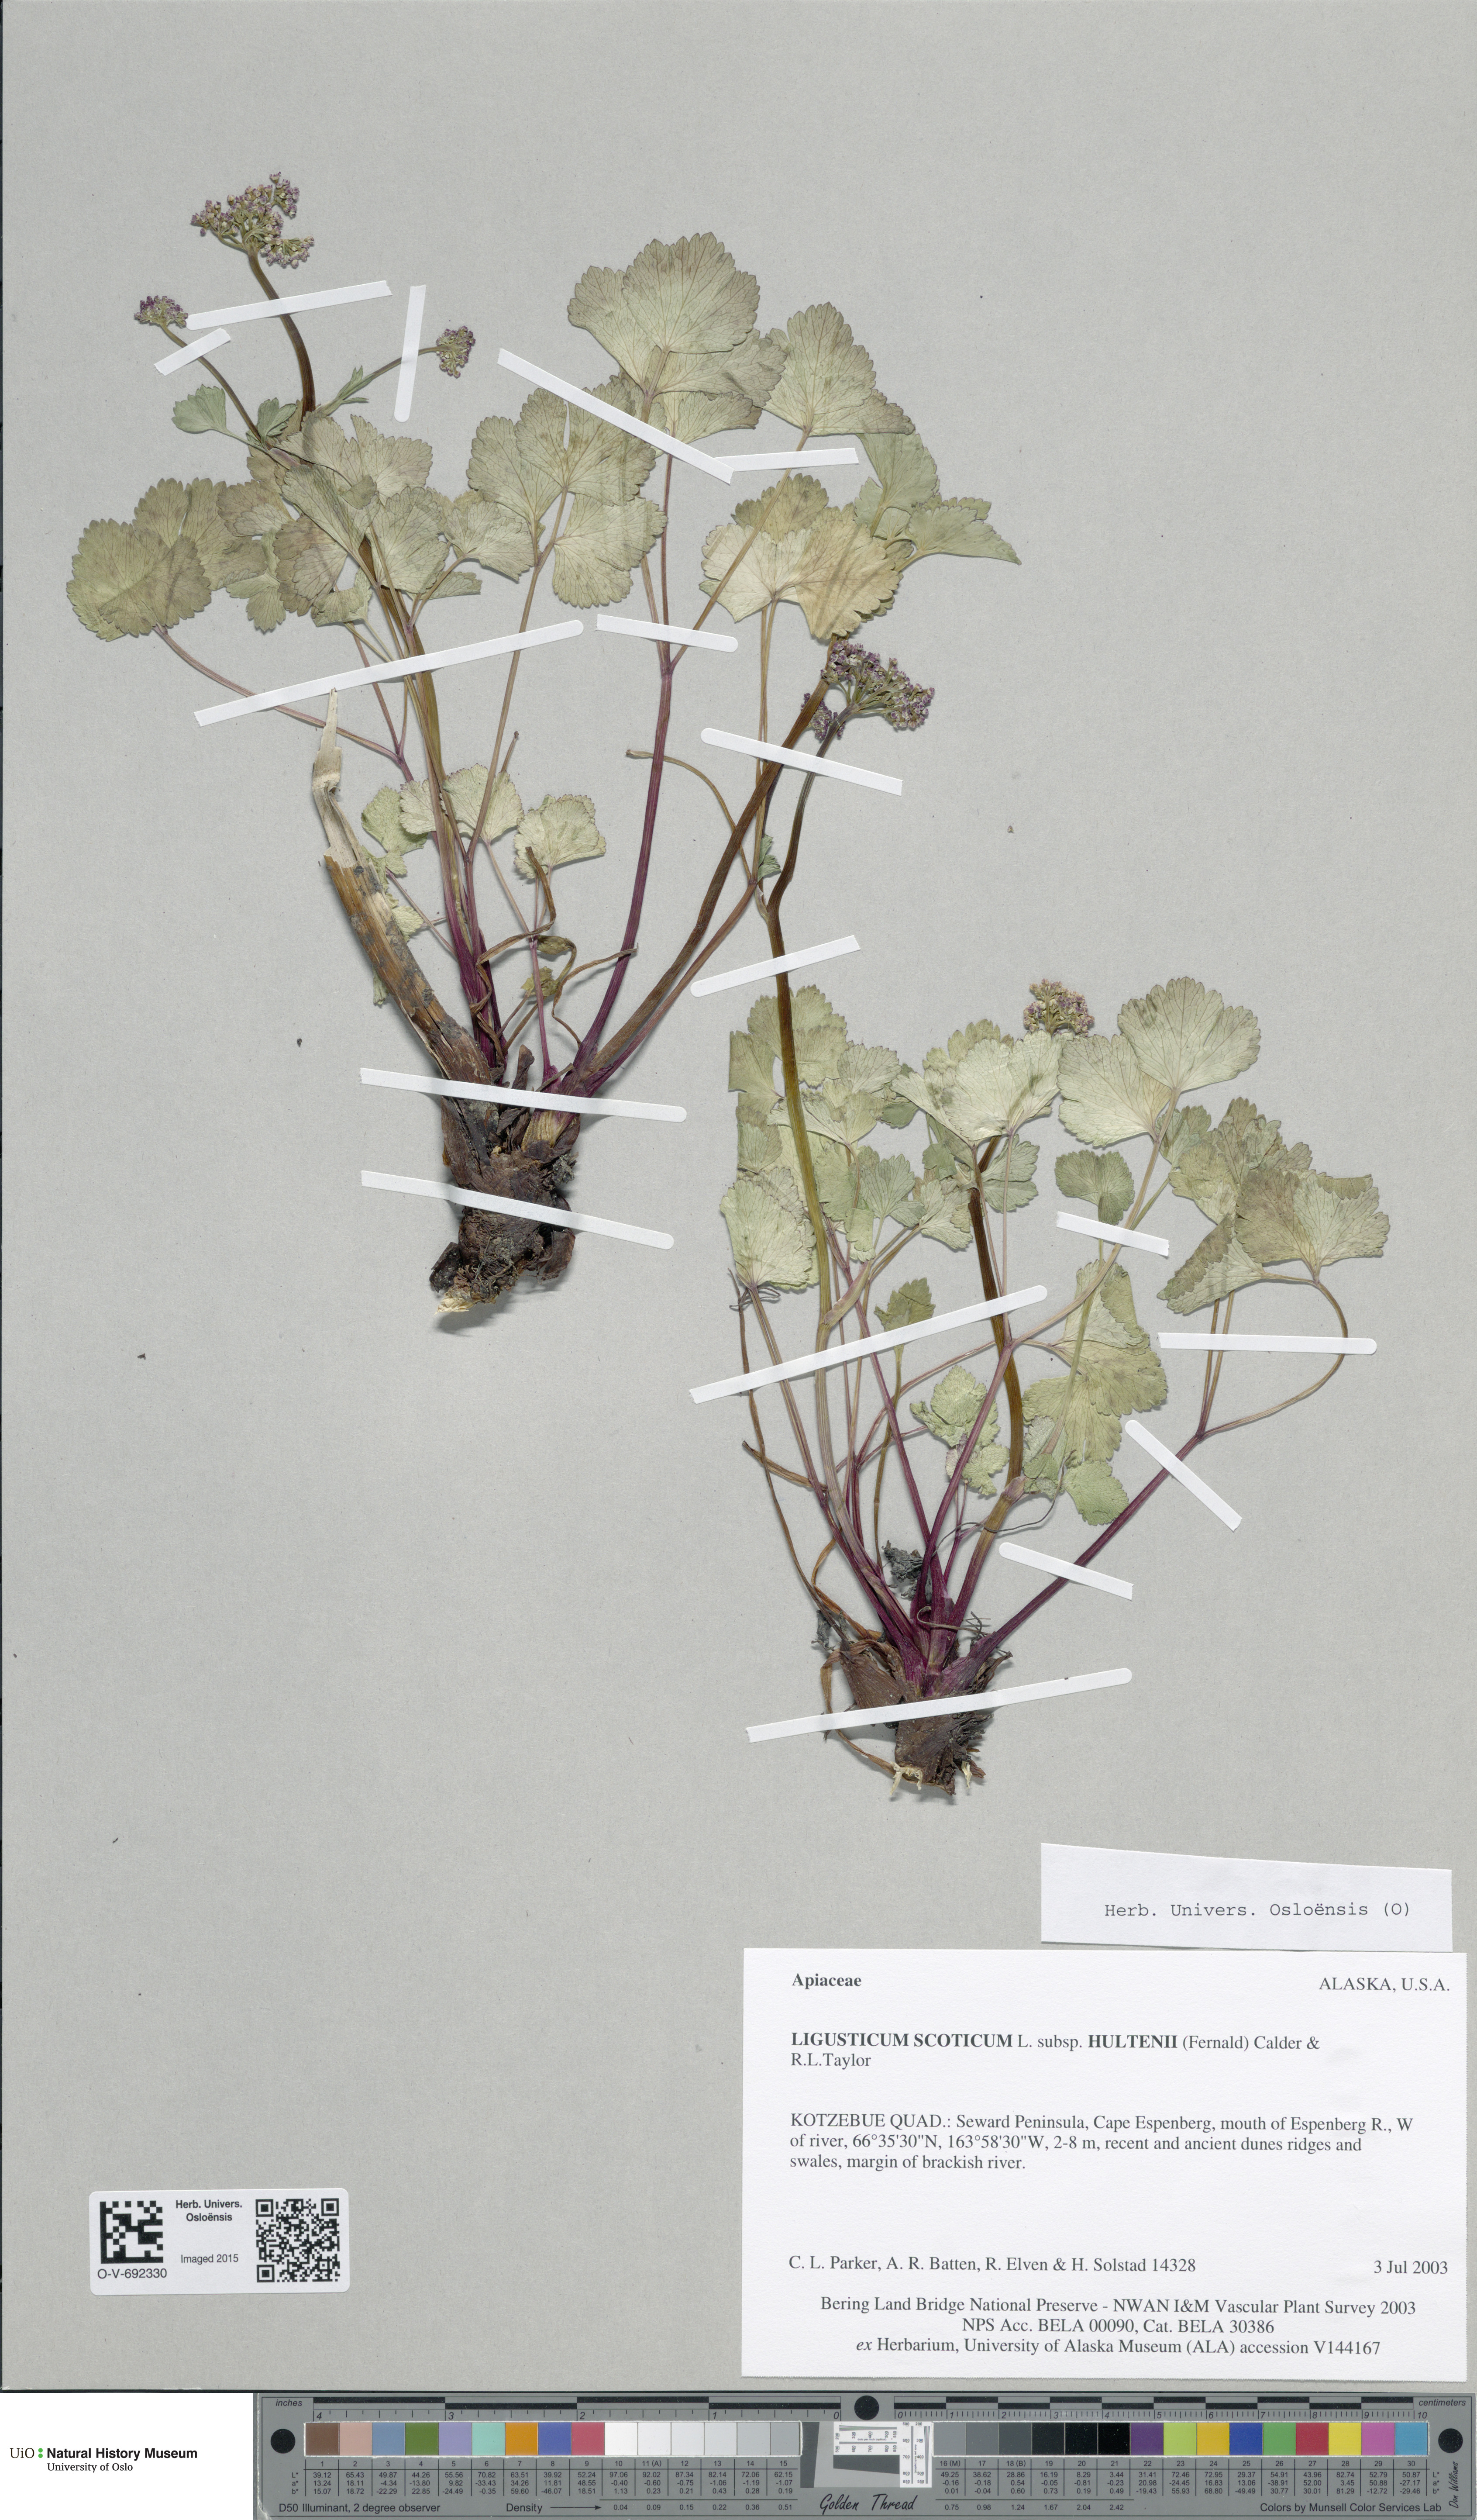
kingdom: Plantae
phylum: Tracheophyta
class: Magnoliopsida
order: Apiales
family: Apiaceae
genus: Ligusticum
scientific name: Ligusticum scothicum
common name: Beach lovage
